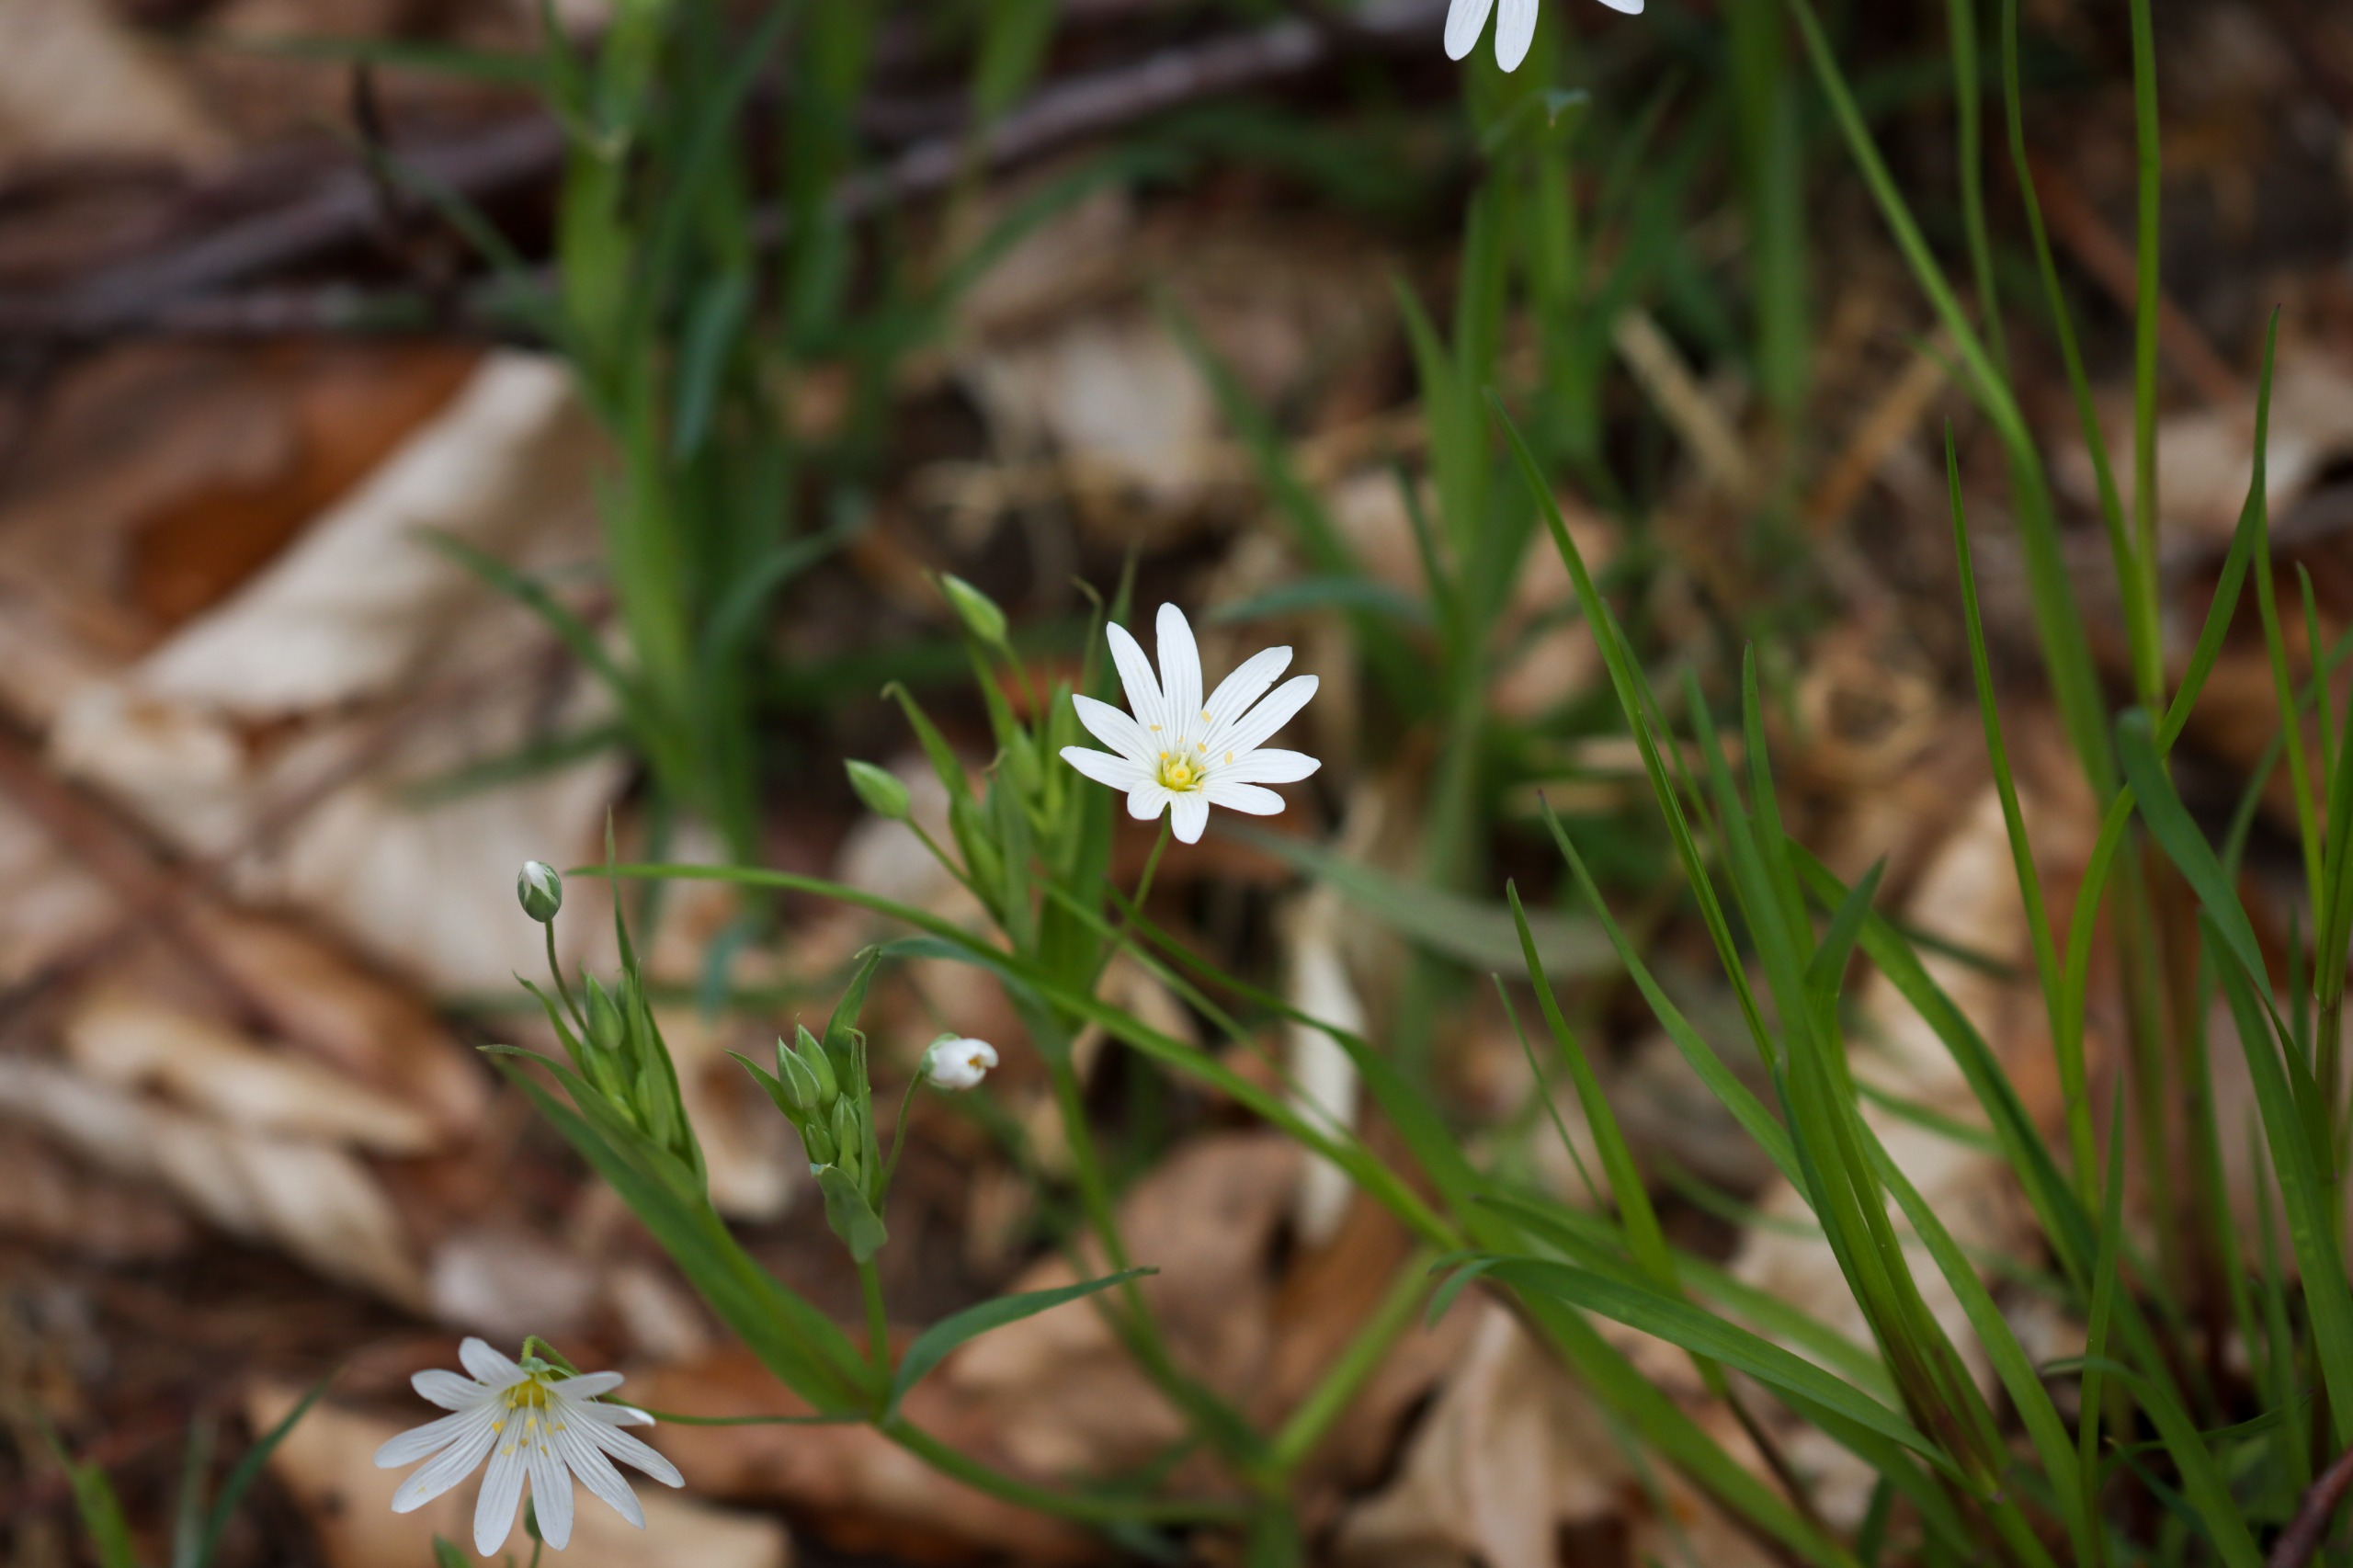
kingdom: Plantae
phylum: Tracheophyta
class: Magnoliopsida
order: Caryophyllales
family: Caryophyllaceae
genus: Rabelera
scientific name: Rabelera holostea
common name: Stor fladstjerne
